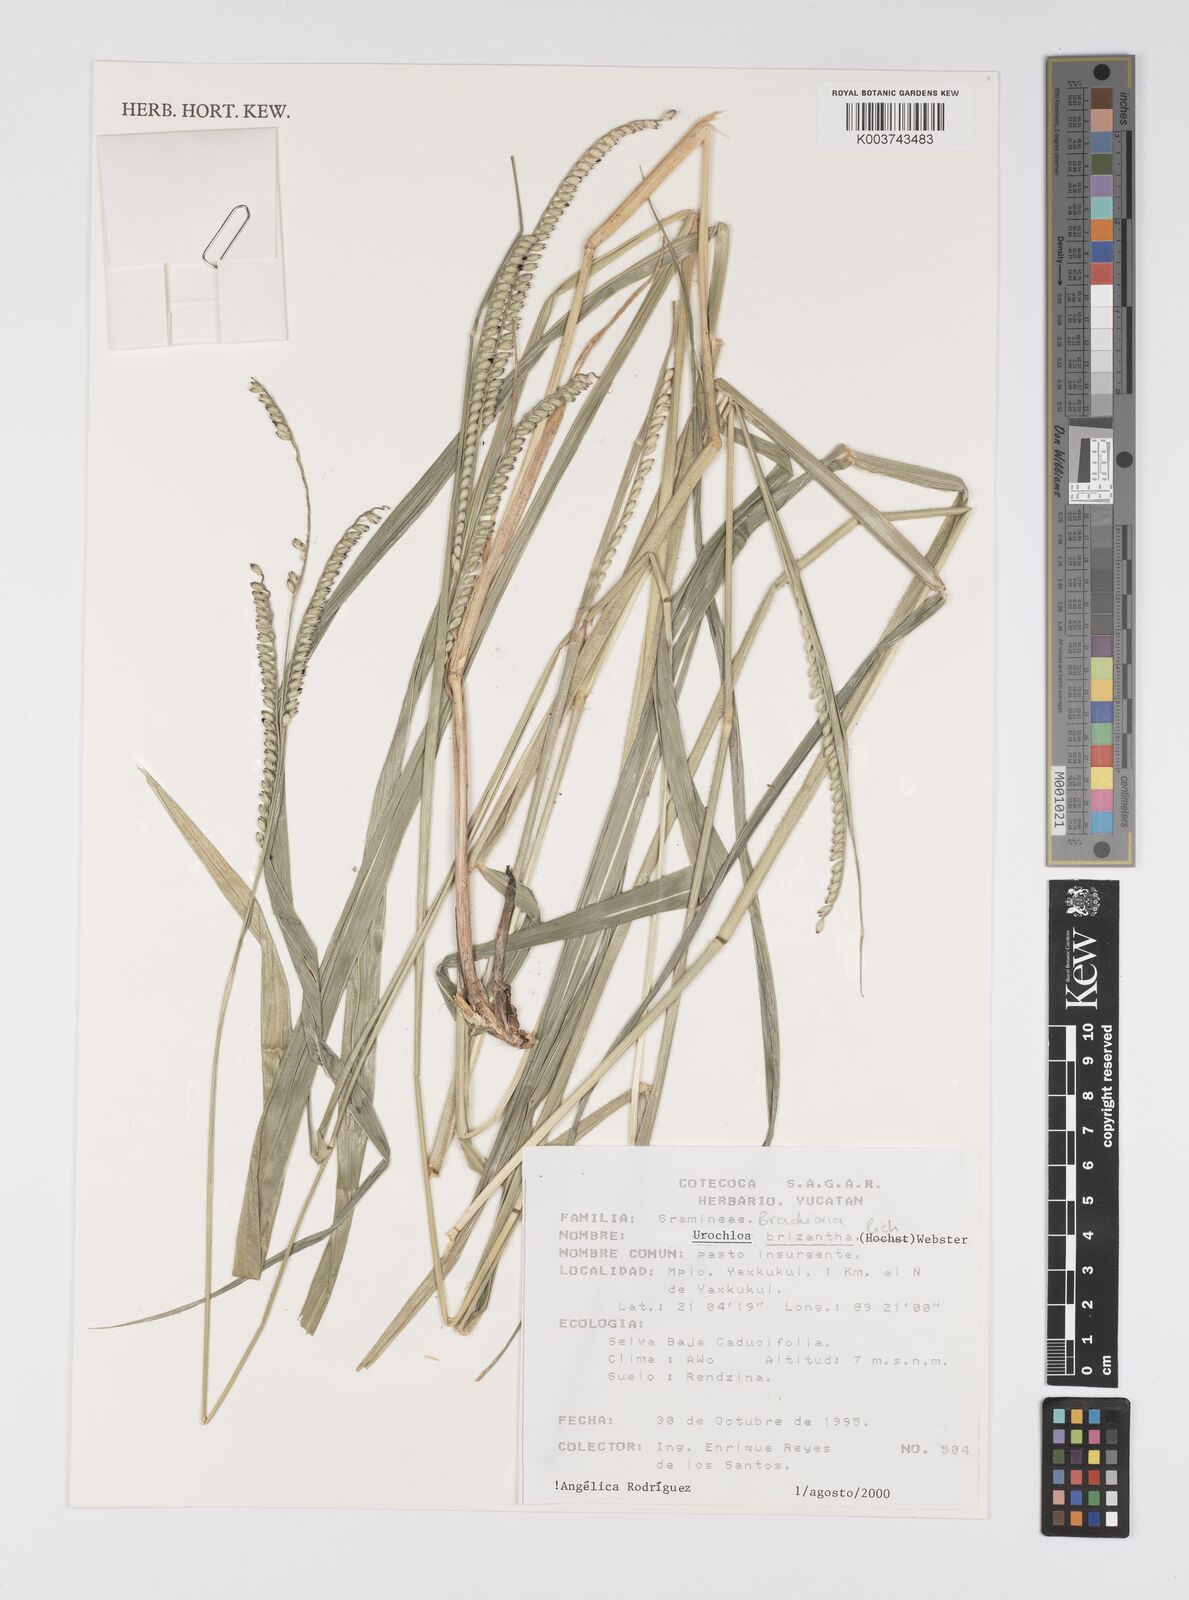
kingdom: Plantae
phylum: Tracheophyta
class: Liliopsida
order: Poales
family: Poaceae
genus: Urochloa
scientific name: Urochloa brizantha
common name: Palisade signalgrass
